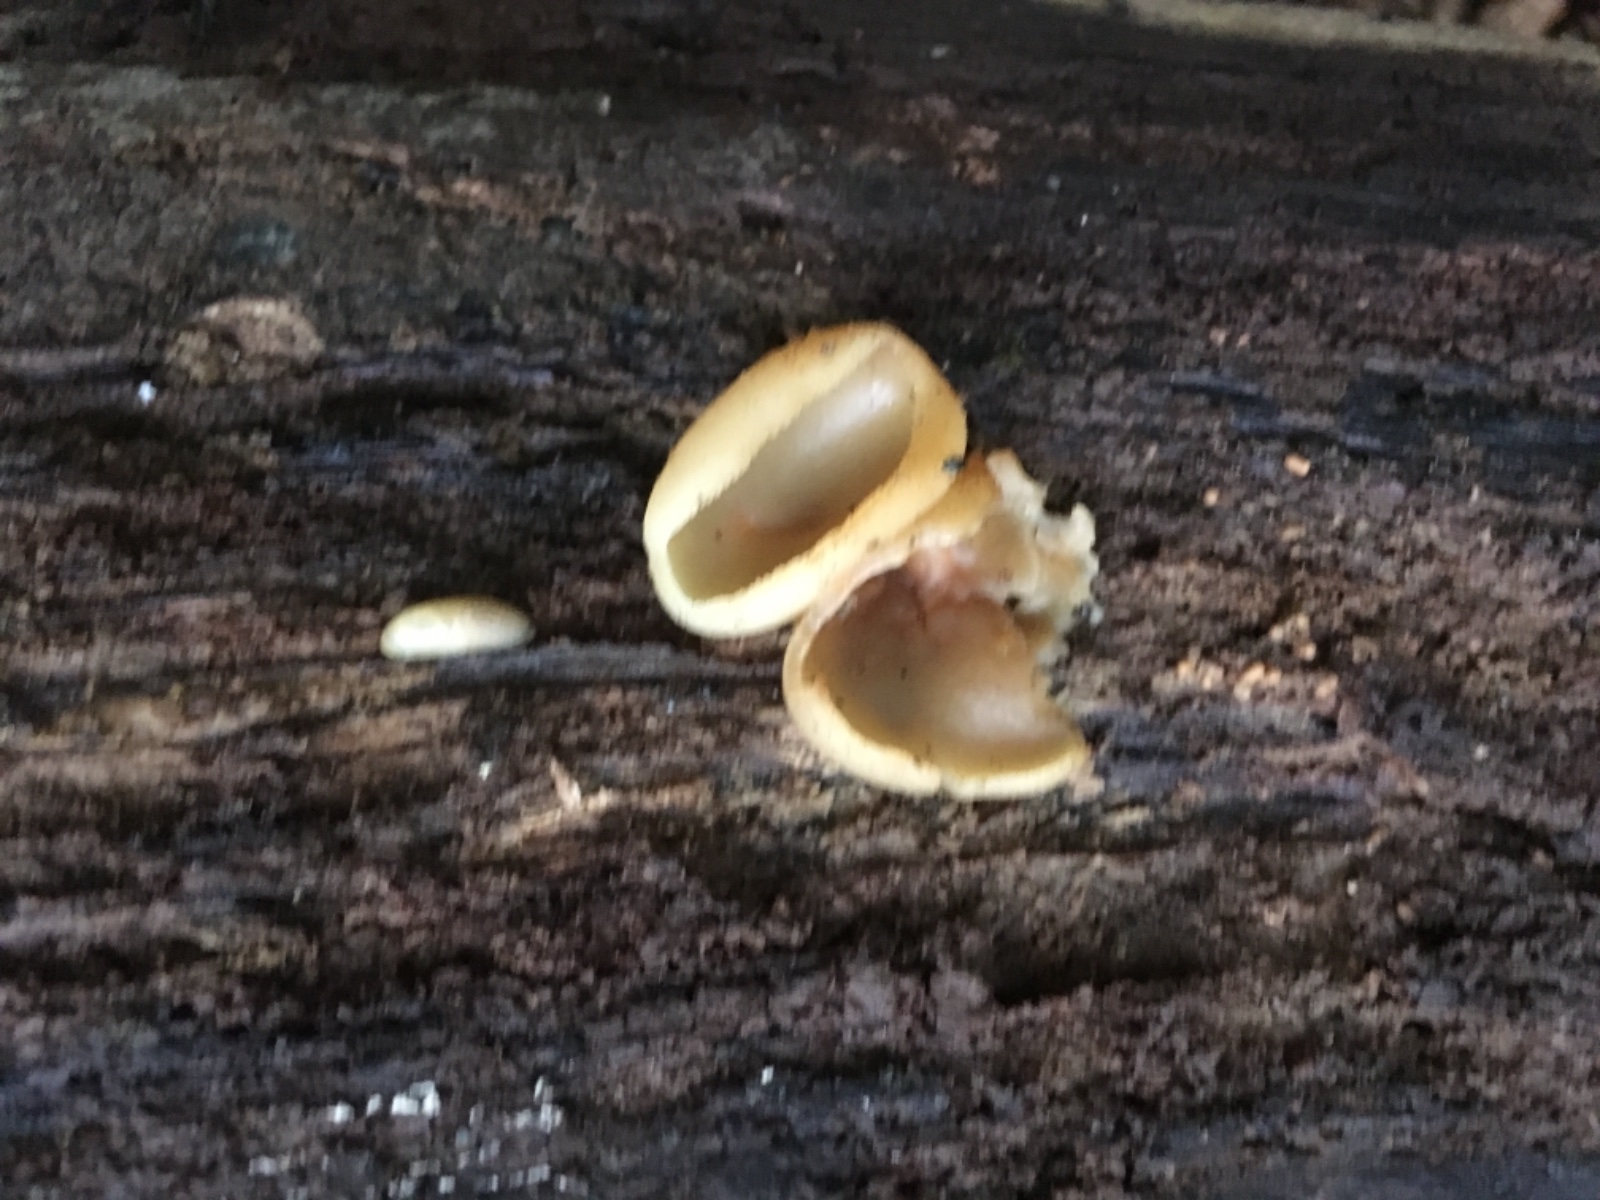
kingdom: Fungi
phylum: Ascomycota
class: Pezizomycetes
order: Pezizales
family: Pezizaceae
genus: Peziza
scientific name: Peziza varia
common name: Ved-bægersvamp
